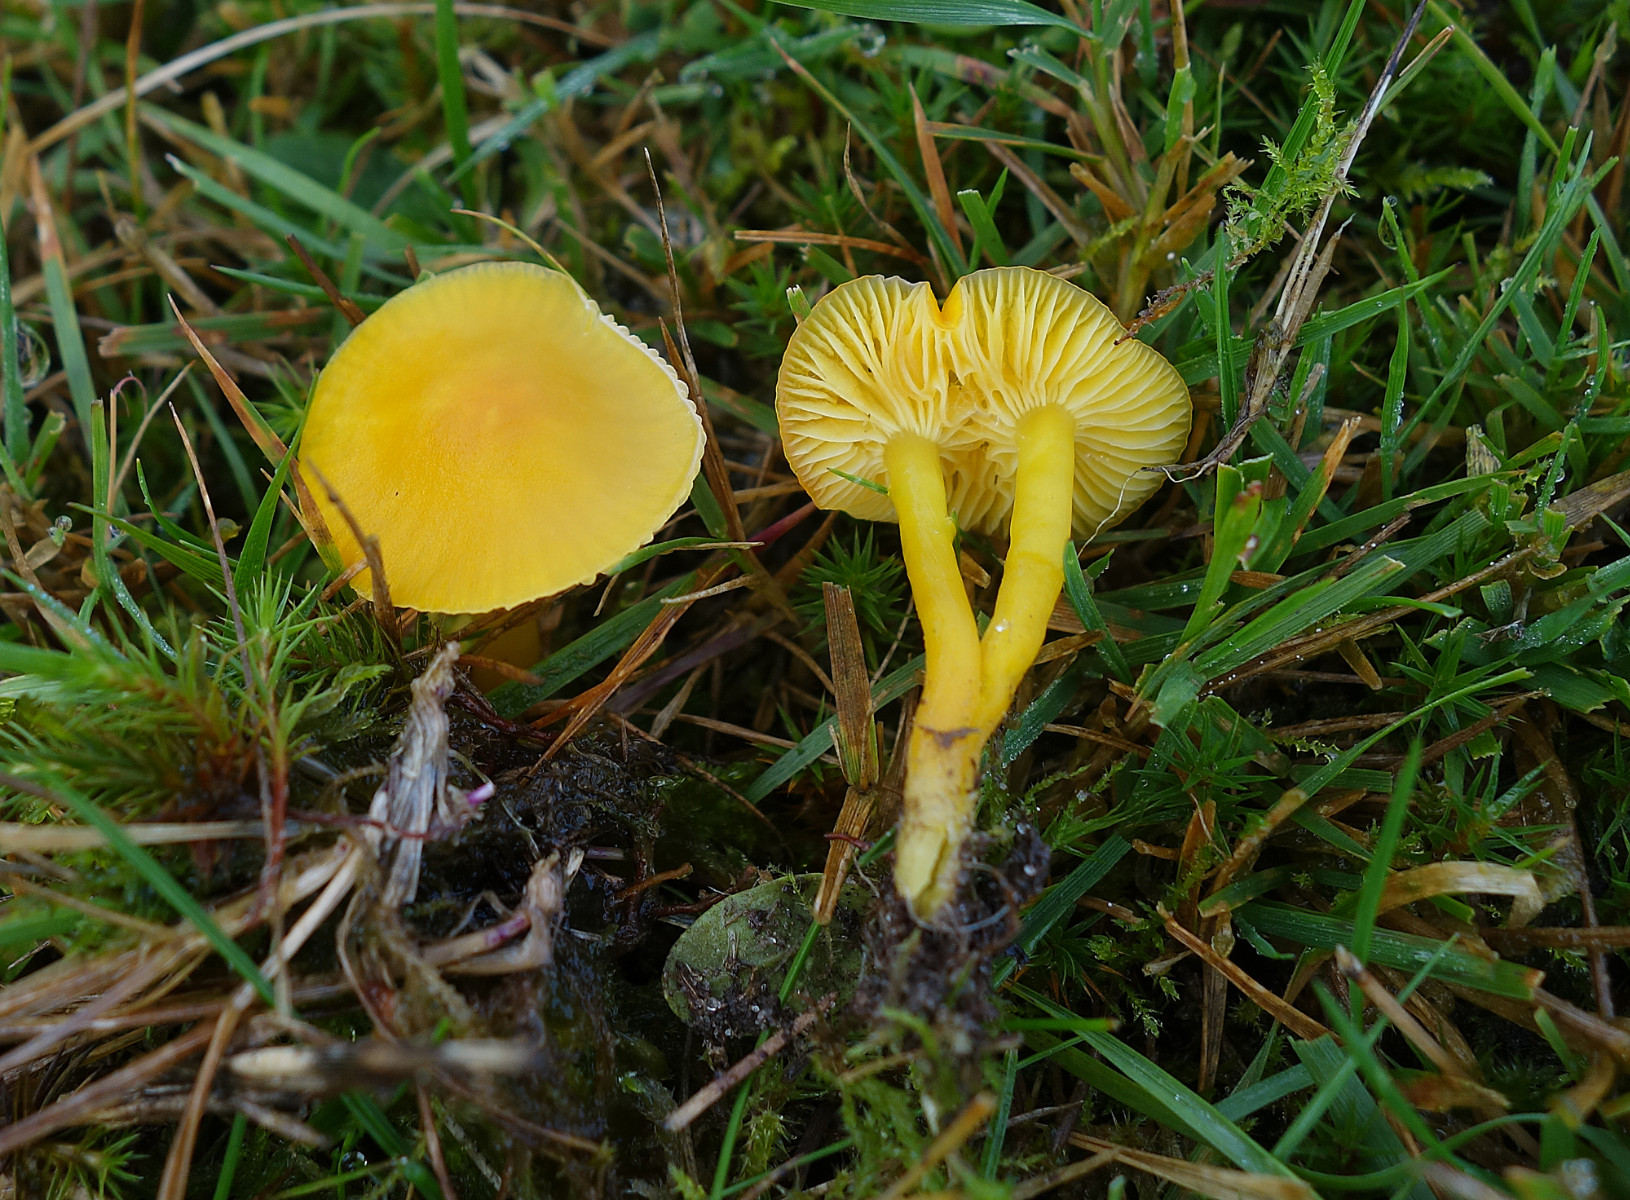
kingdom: Fungi
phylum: Basidiomycota
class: Agaricomycetes
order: Agaricales
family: Hygrophoraceae
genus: Hygrocybe
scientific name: Hygrocybe ceracea
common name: voksgul vokshat
